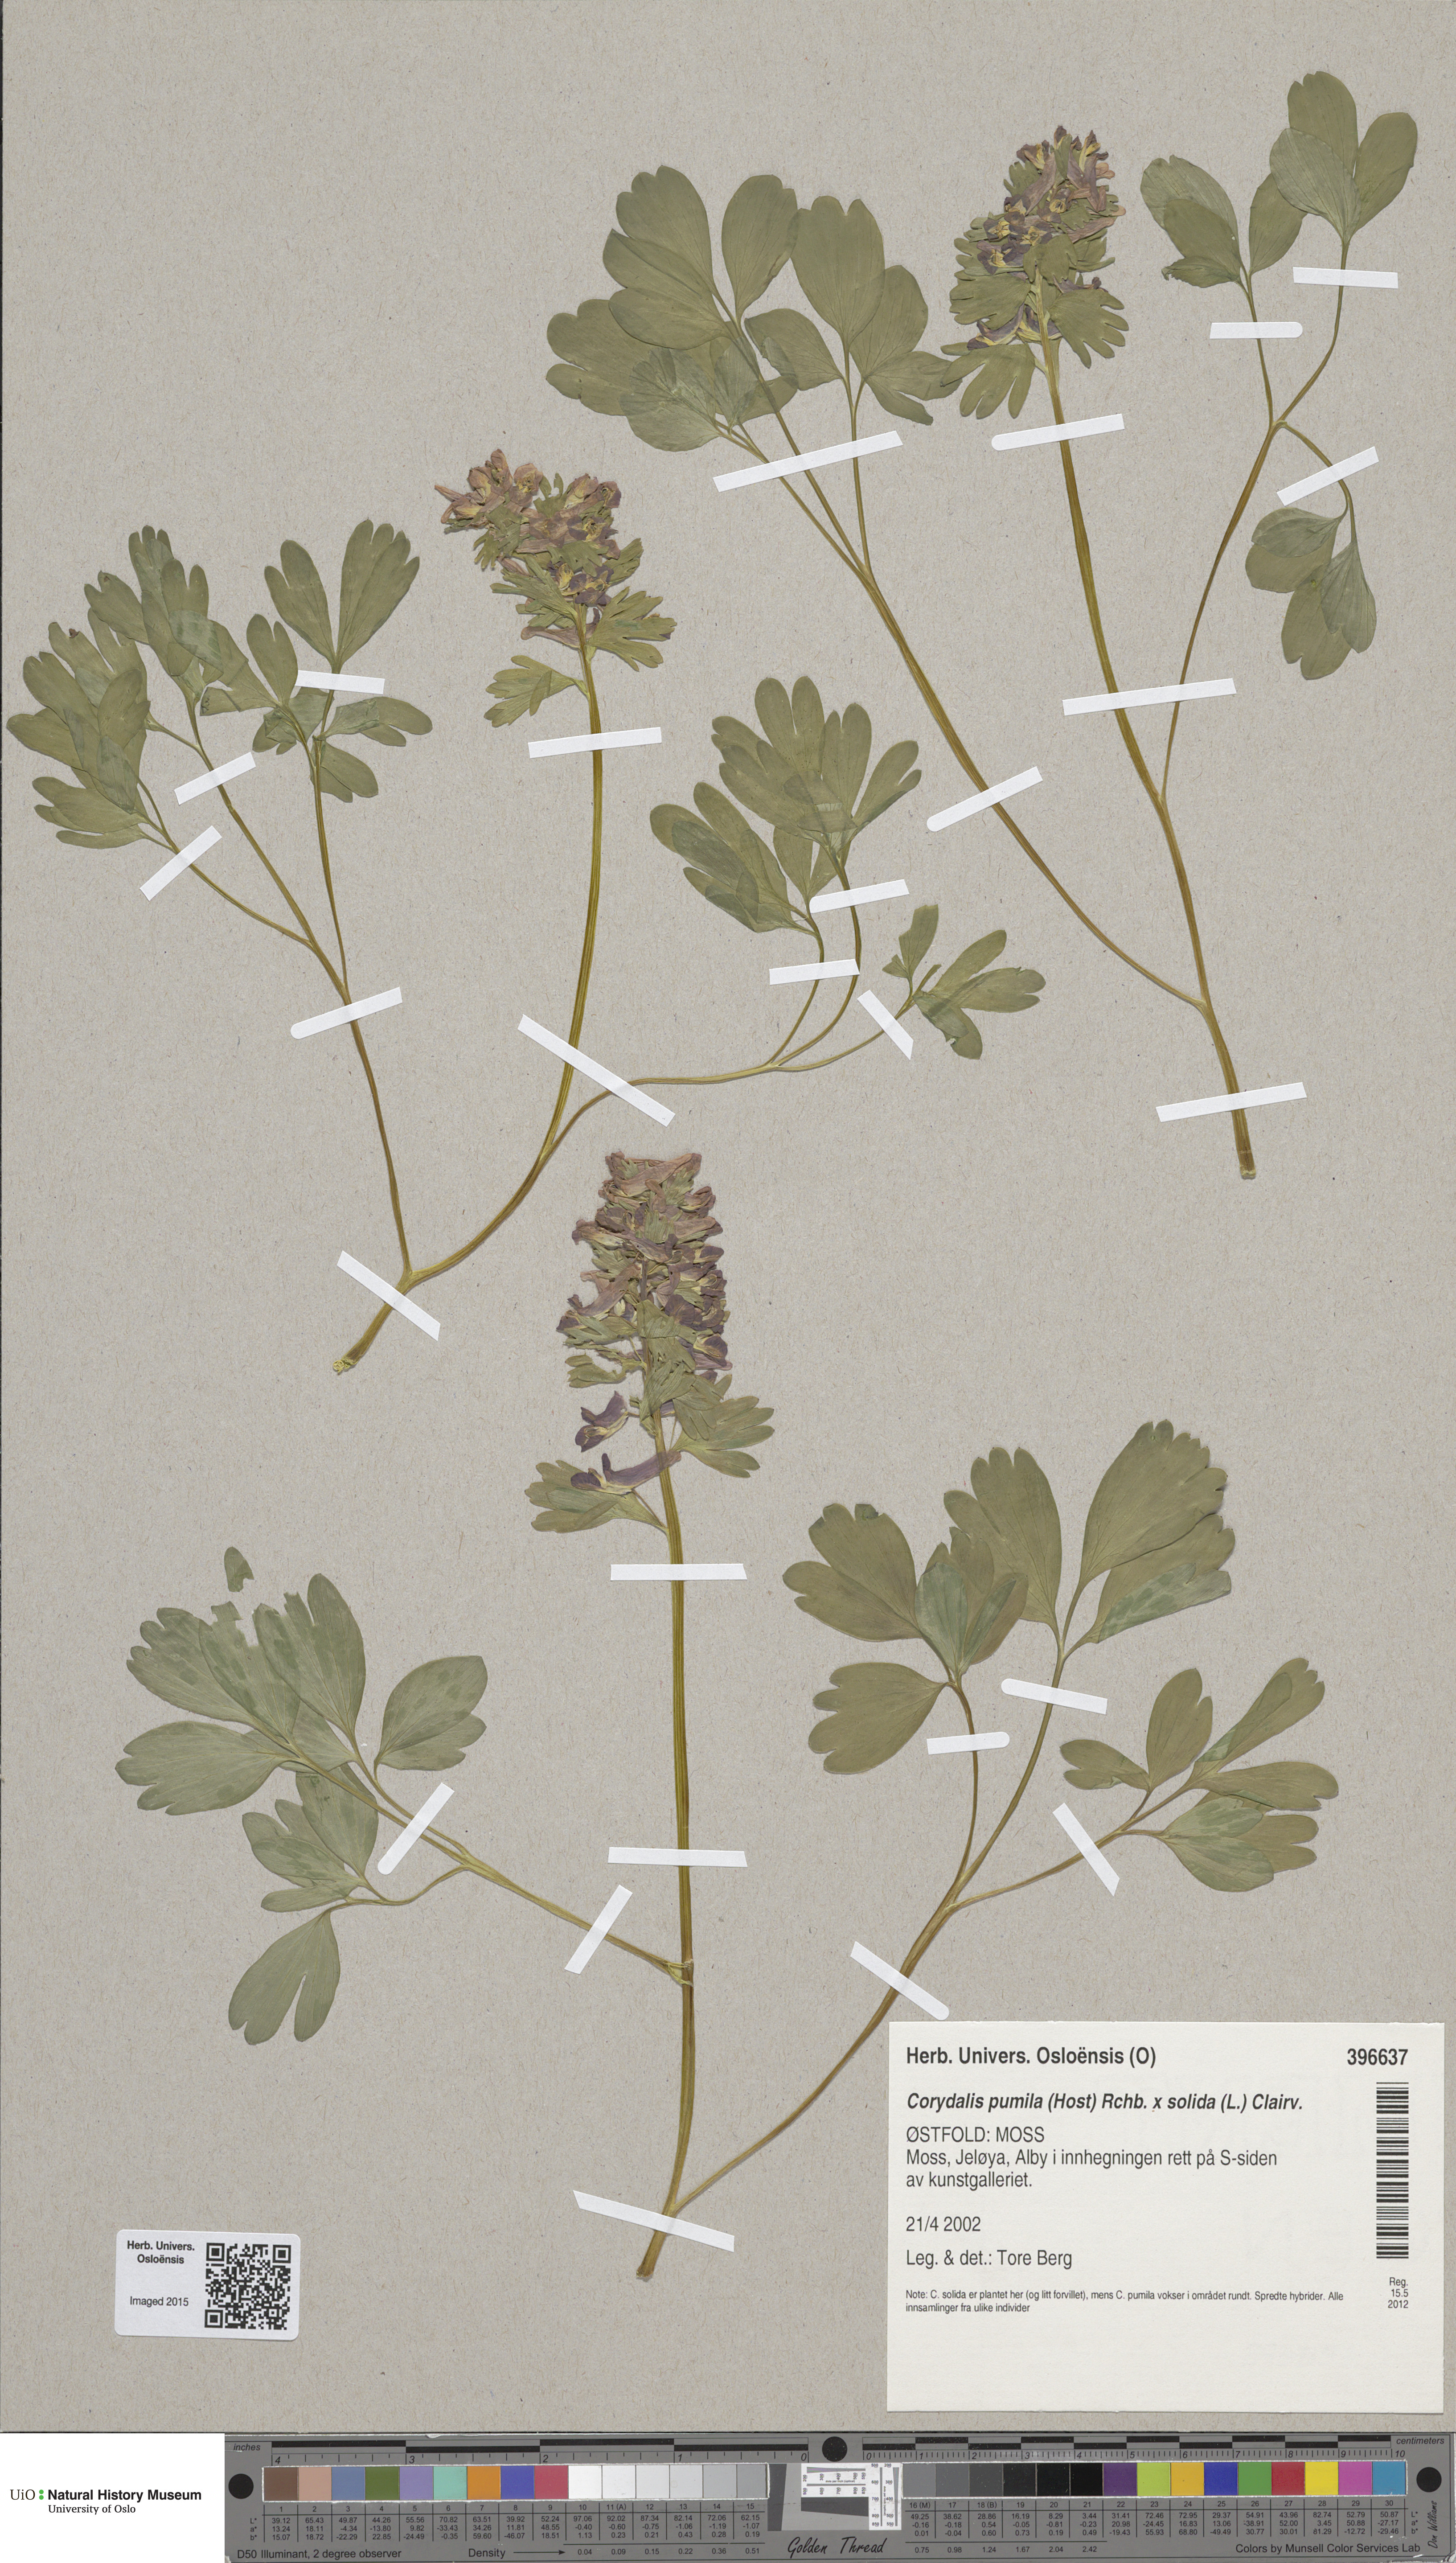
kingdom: Plantae
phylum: Tracheophyta
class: Magnoliopsida
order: Ranunculales
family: Papaveraceae
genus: Corydalis
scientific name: Corydalis
